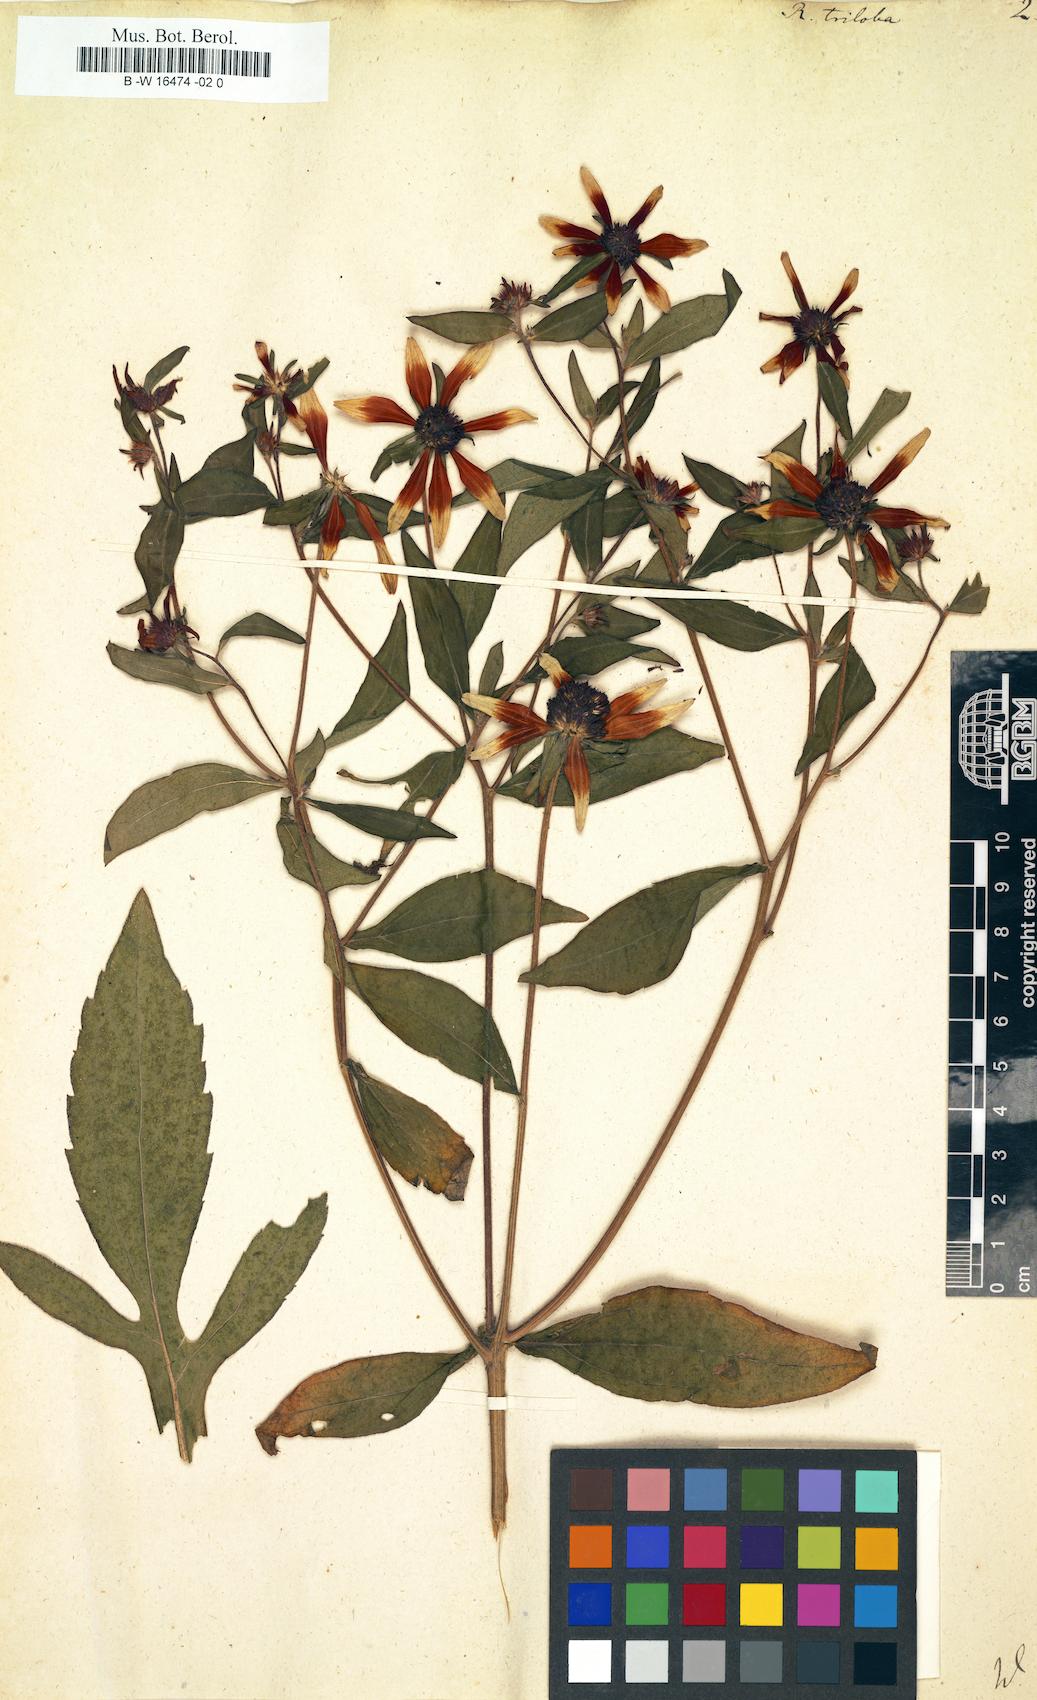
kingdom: Plantae
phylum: Tracheophyta
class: Magnoliopsida
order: Asterales
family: Asteraceae
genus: Rudbeckia
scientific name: Rudbeckia triloba
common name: Thin-leaved coneflower
